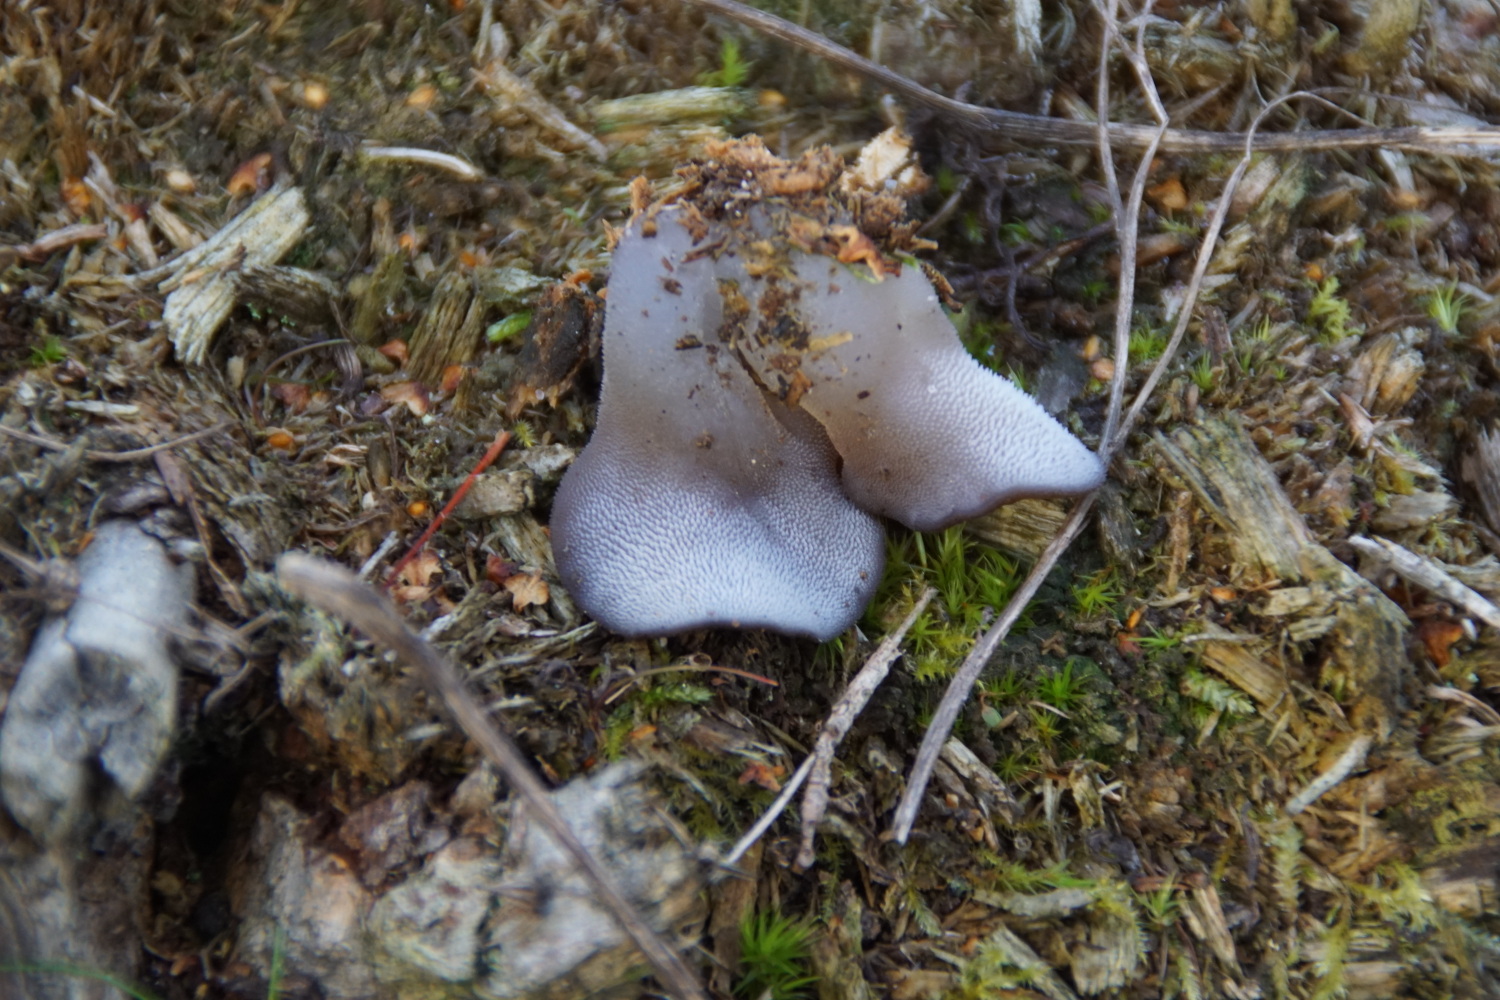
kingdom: Fungi
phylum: Basidiomycota
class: Agaricomycetes
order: Auriculariales
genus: Pseudohydnum
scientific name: Pseudohydnum gelatinosum
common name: bævretand
